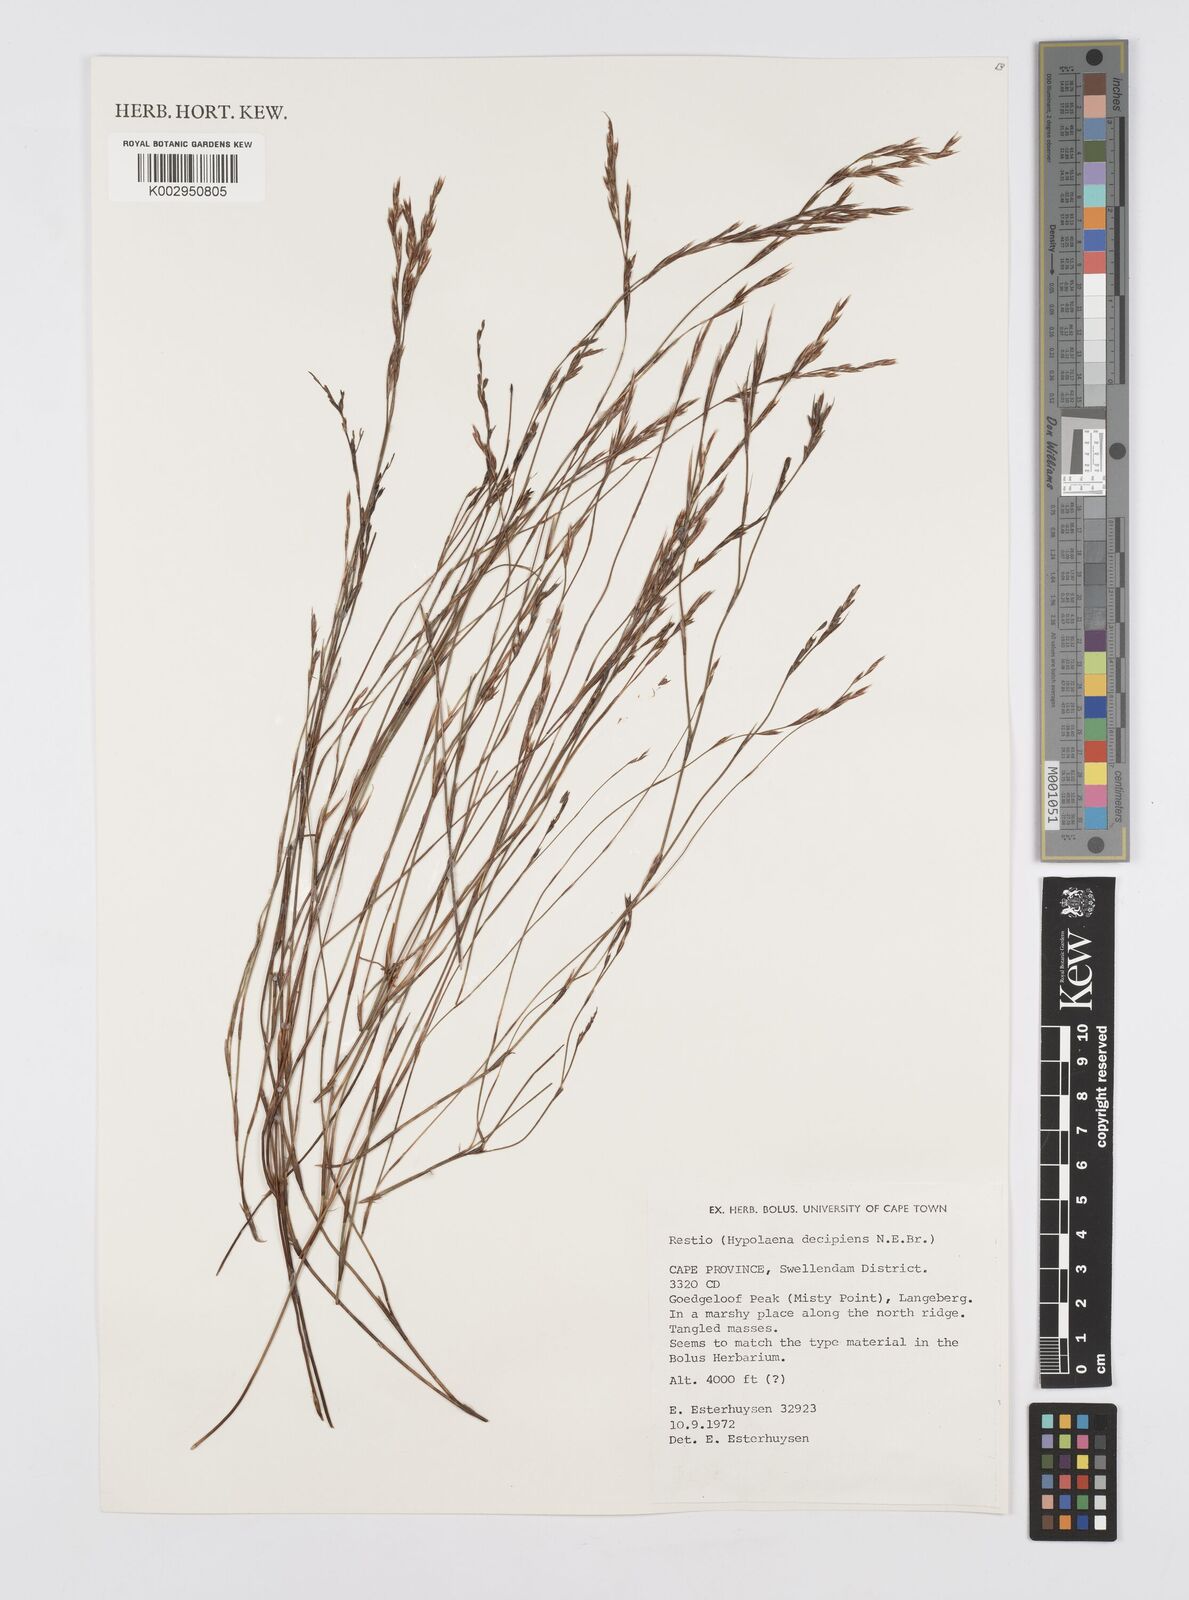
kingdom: Plantae
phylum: Tracheophyta
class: Liliopsida
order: Poales
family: Restionaceae
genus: Restio
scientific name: Restio decipiens
